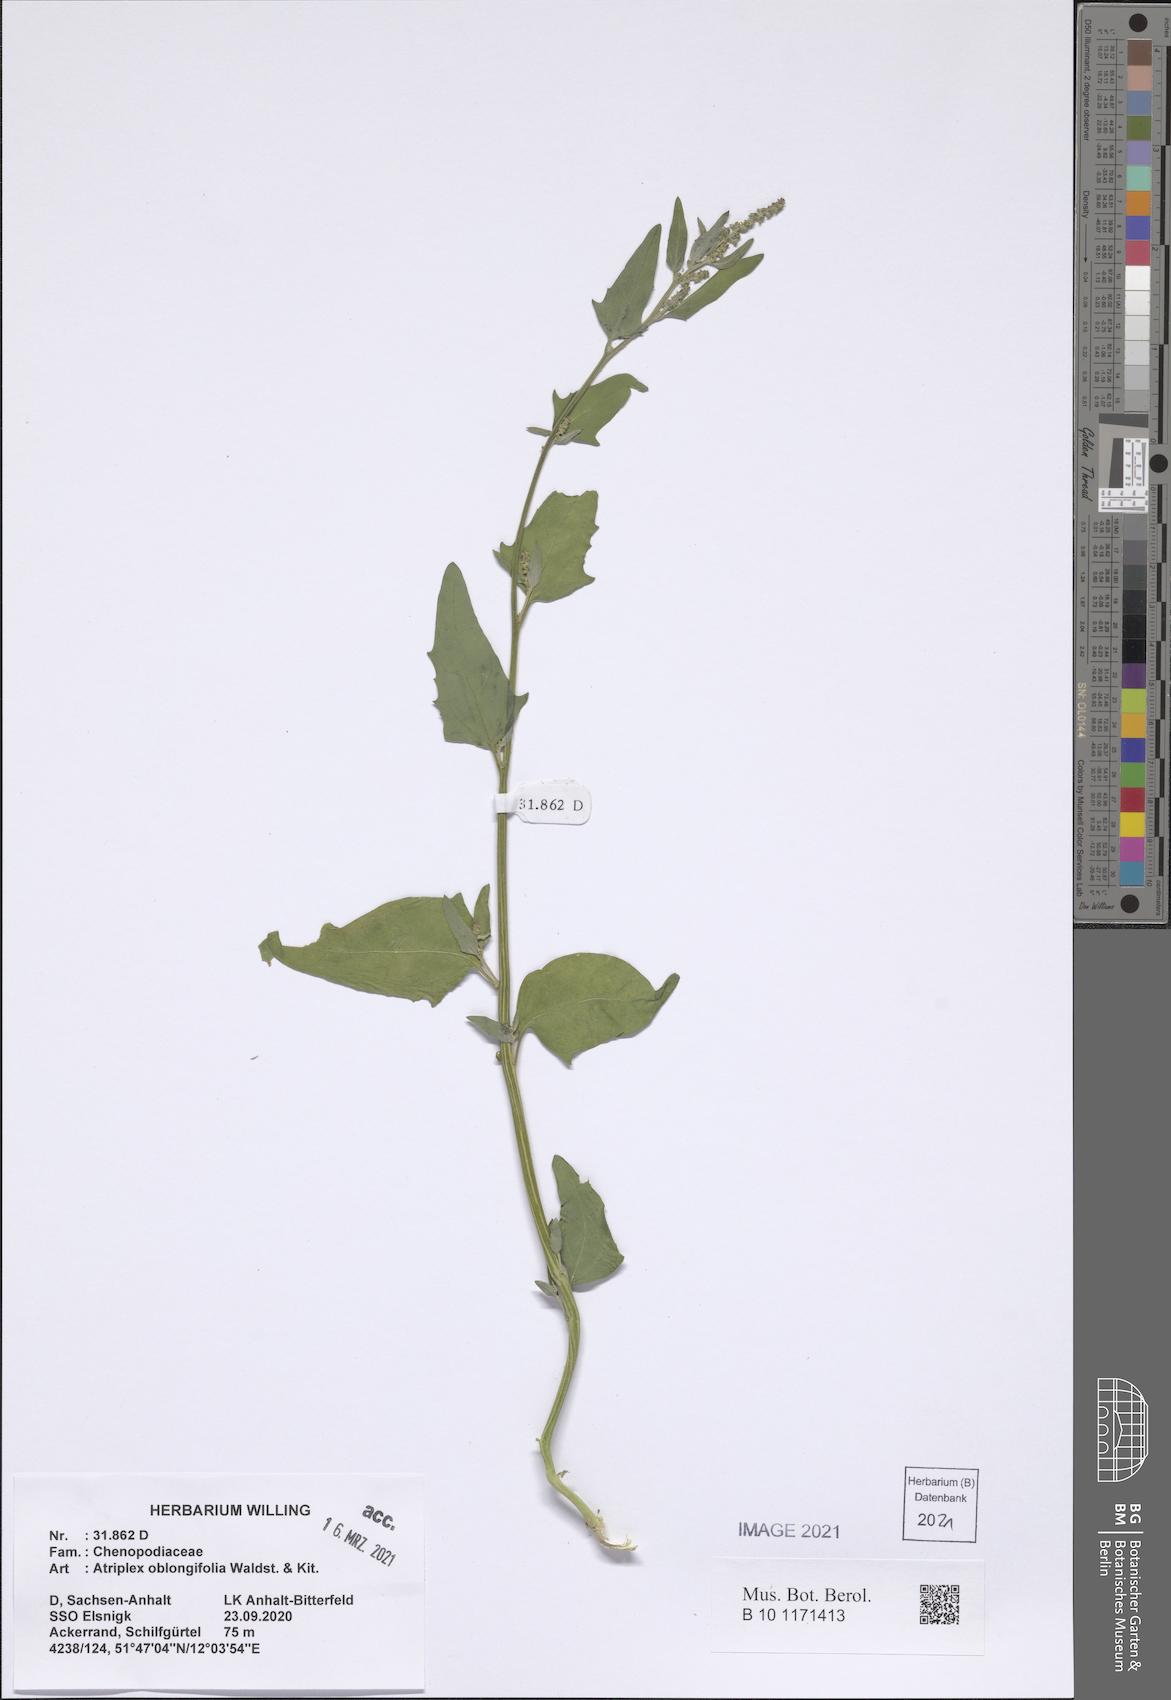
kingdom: Plantae
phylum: Tracheophyta
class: Magnoliopsida
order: Caryophyllales
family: Amaranthaceae
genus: Atriplex
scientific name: Atriplex oblongifolia
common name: Oblongleaf orache
